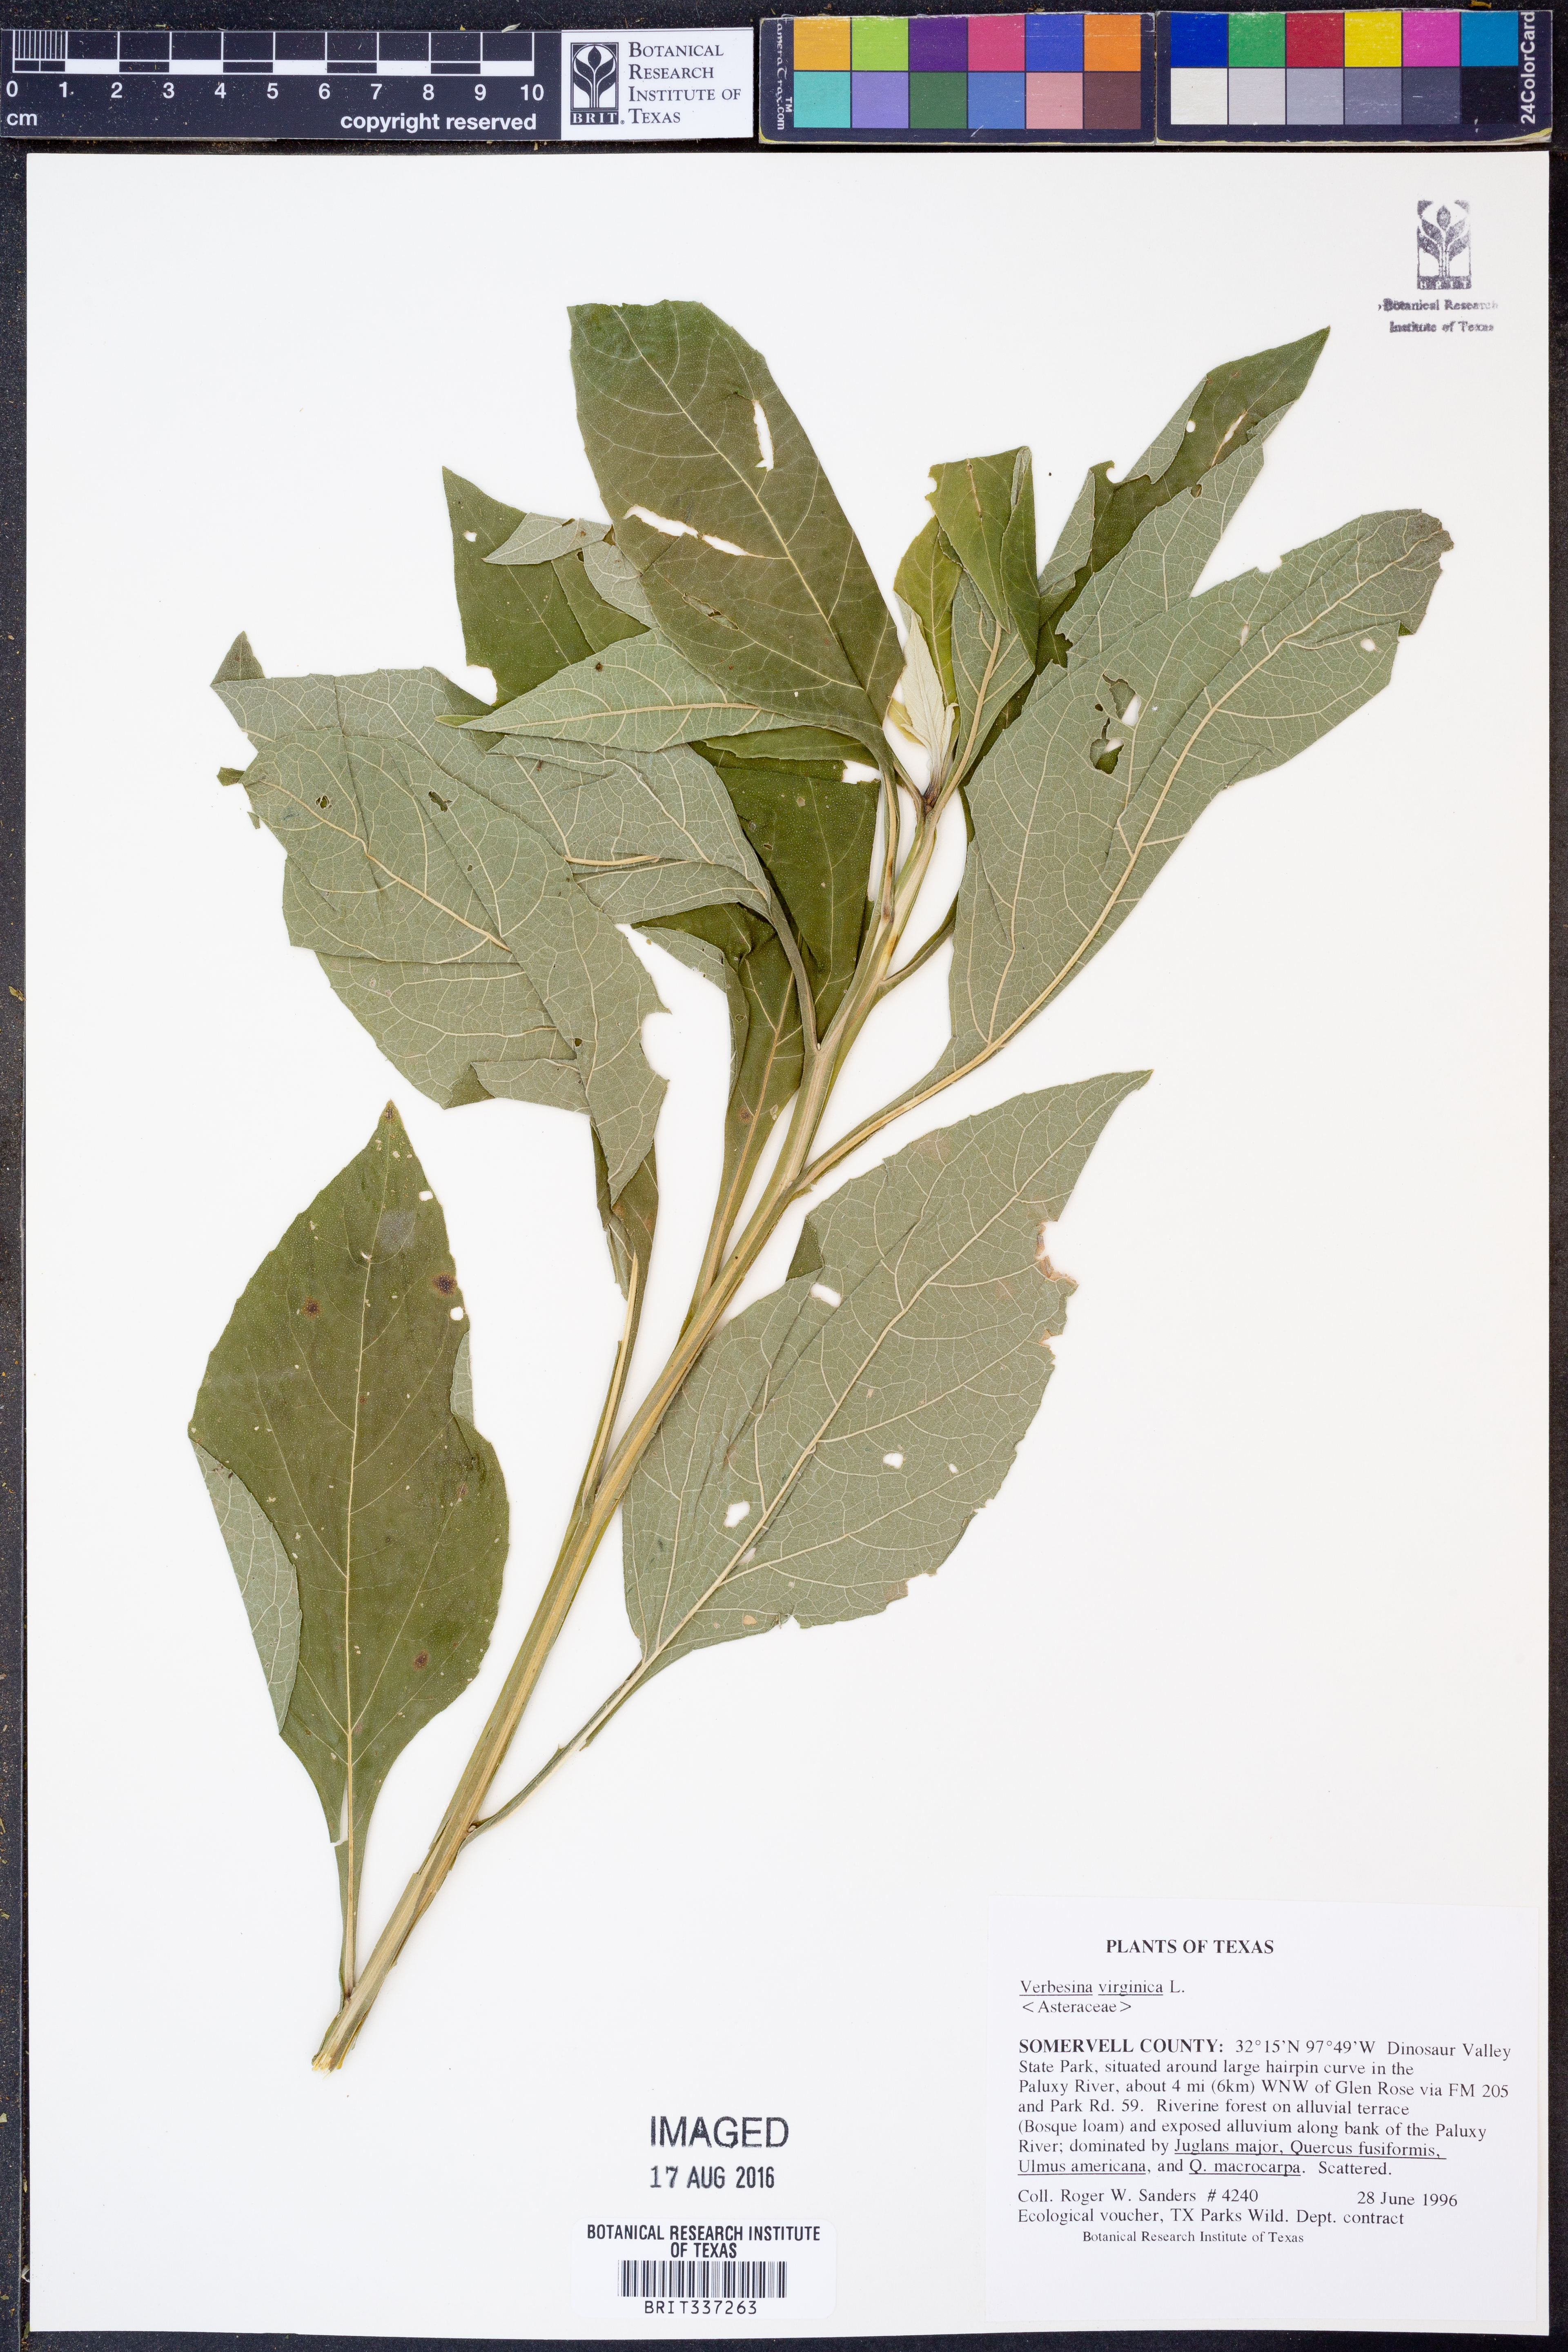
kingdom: Plantae
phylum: Tracheophyta
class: Magnoliopsida
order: Asterales
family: Asteraceae
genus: Verbesina
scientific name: Verbesina virginica
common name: Frostweed
